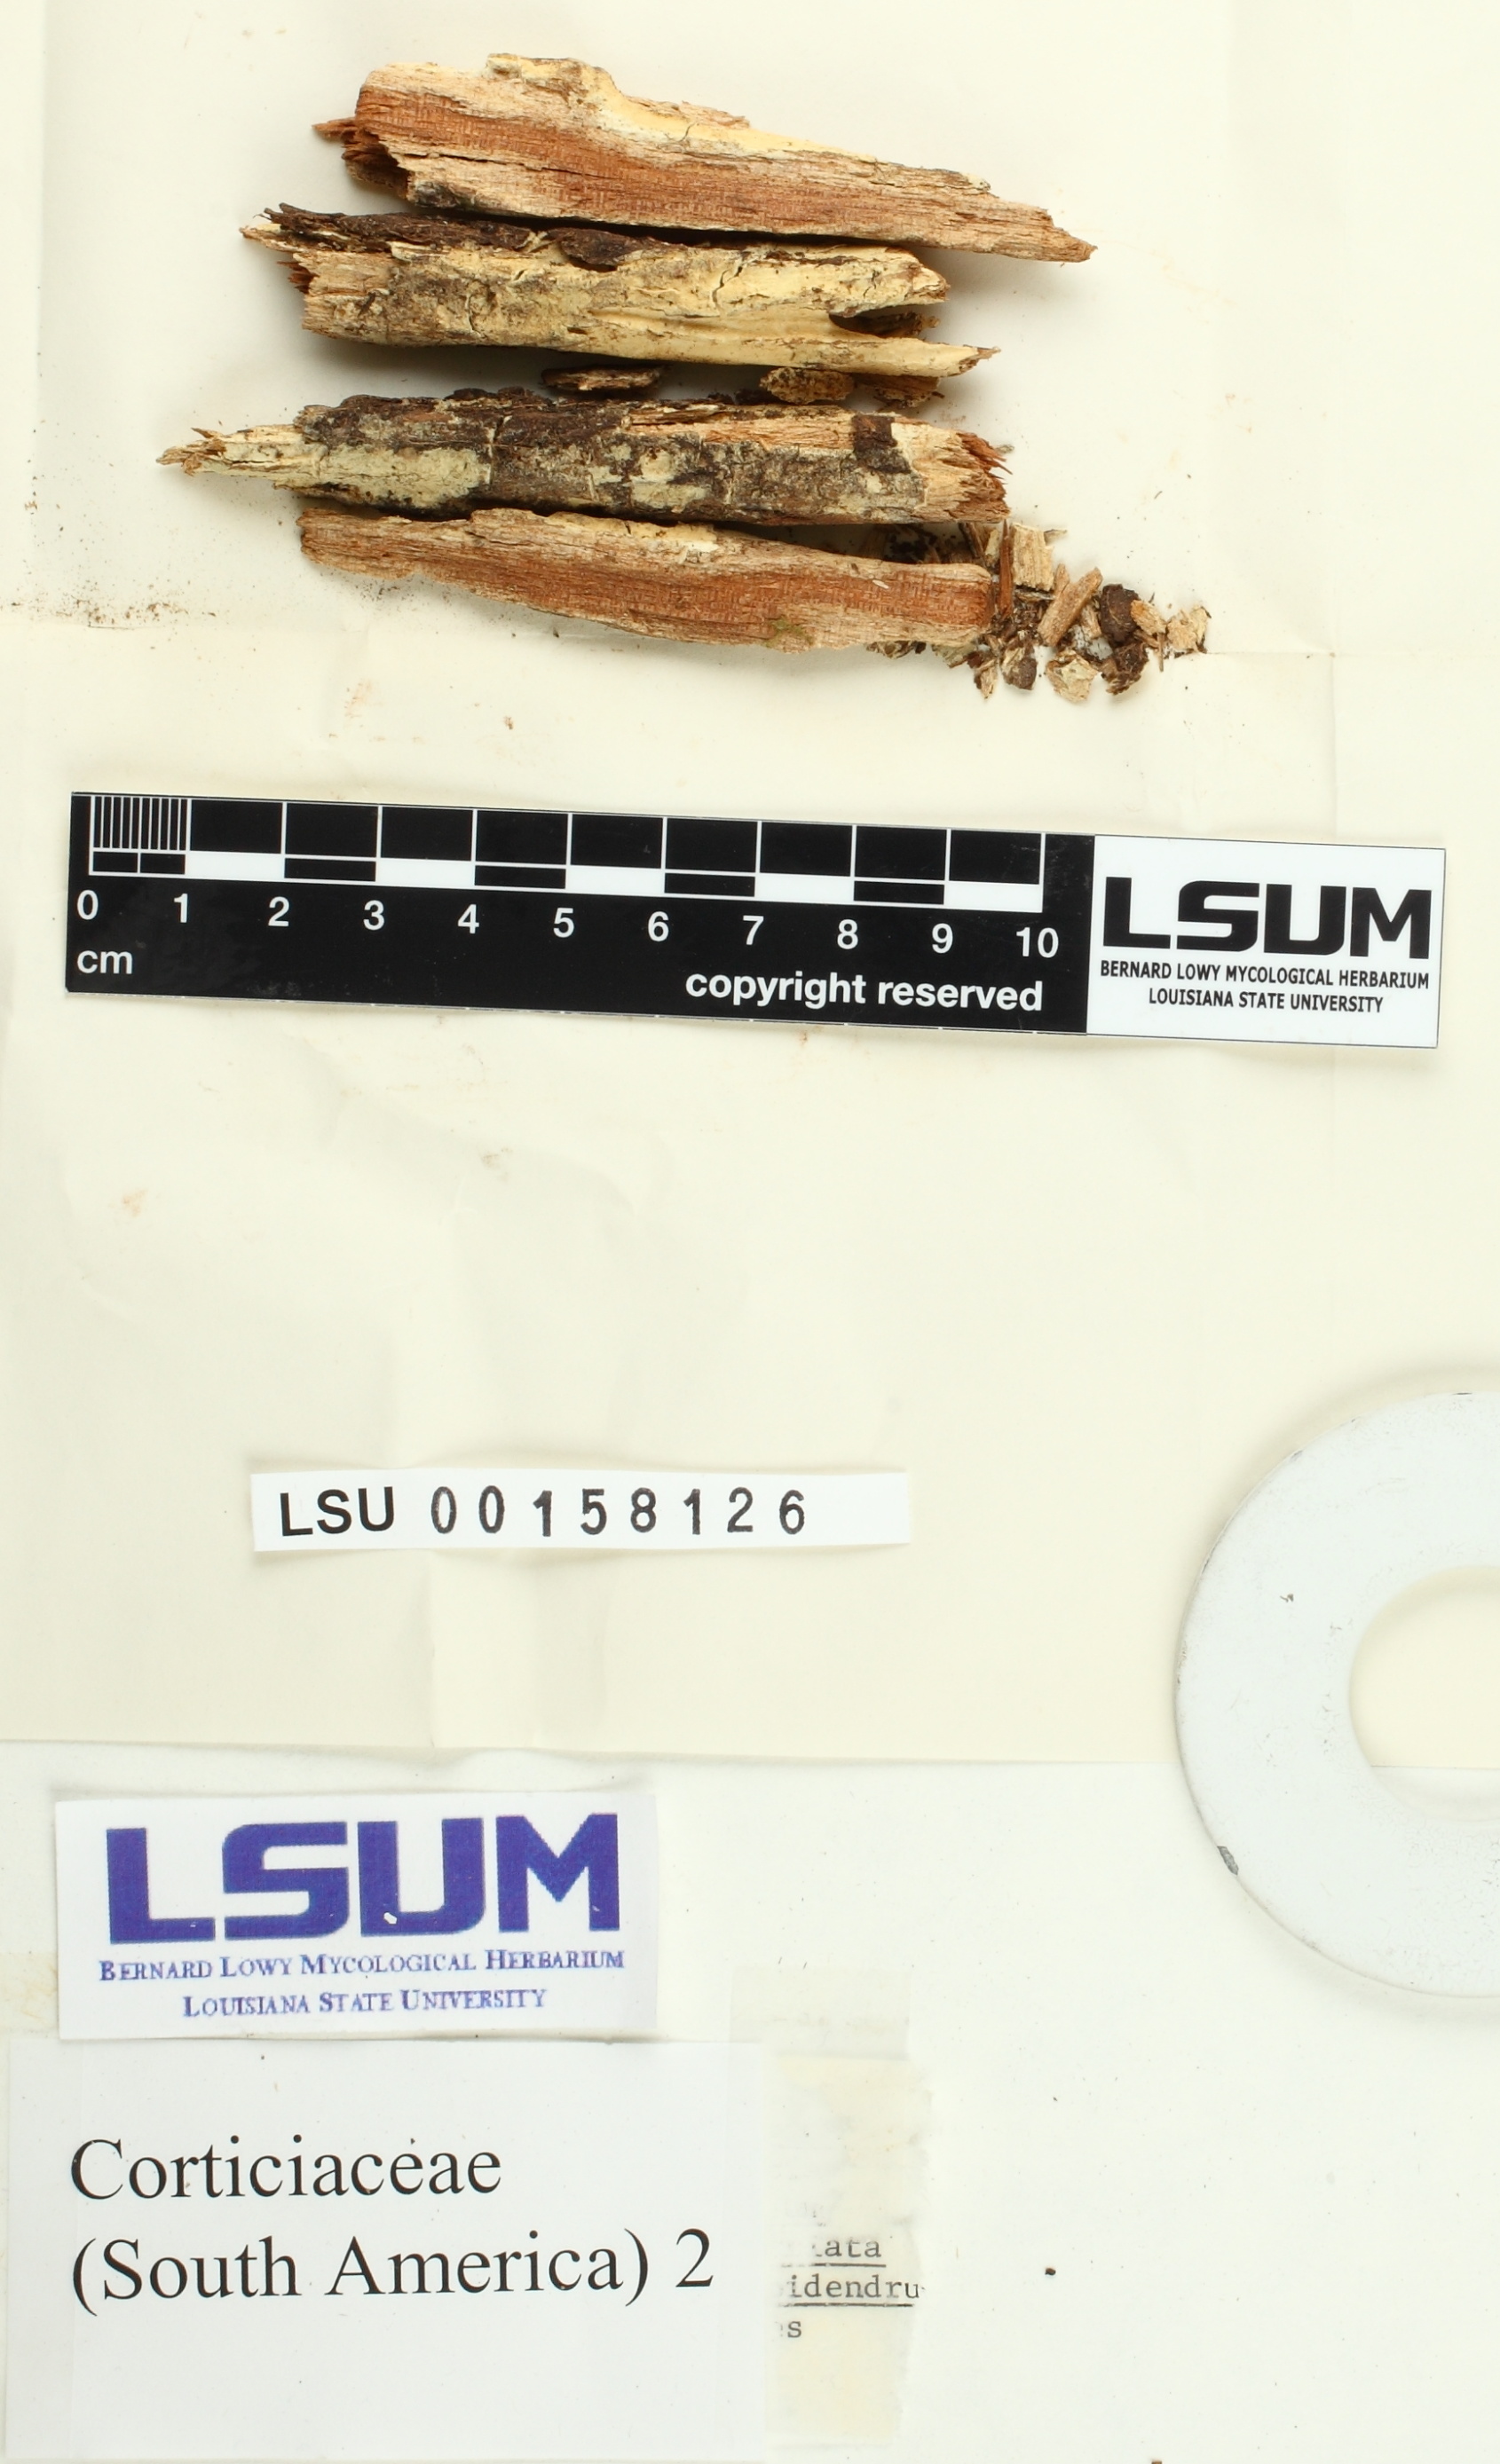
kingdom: Fungi
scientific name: Fungi
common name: Fungi
